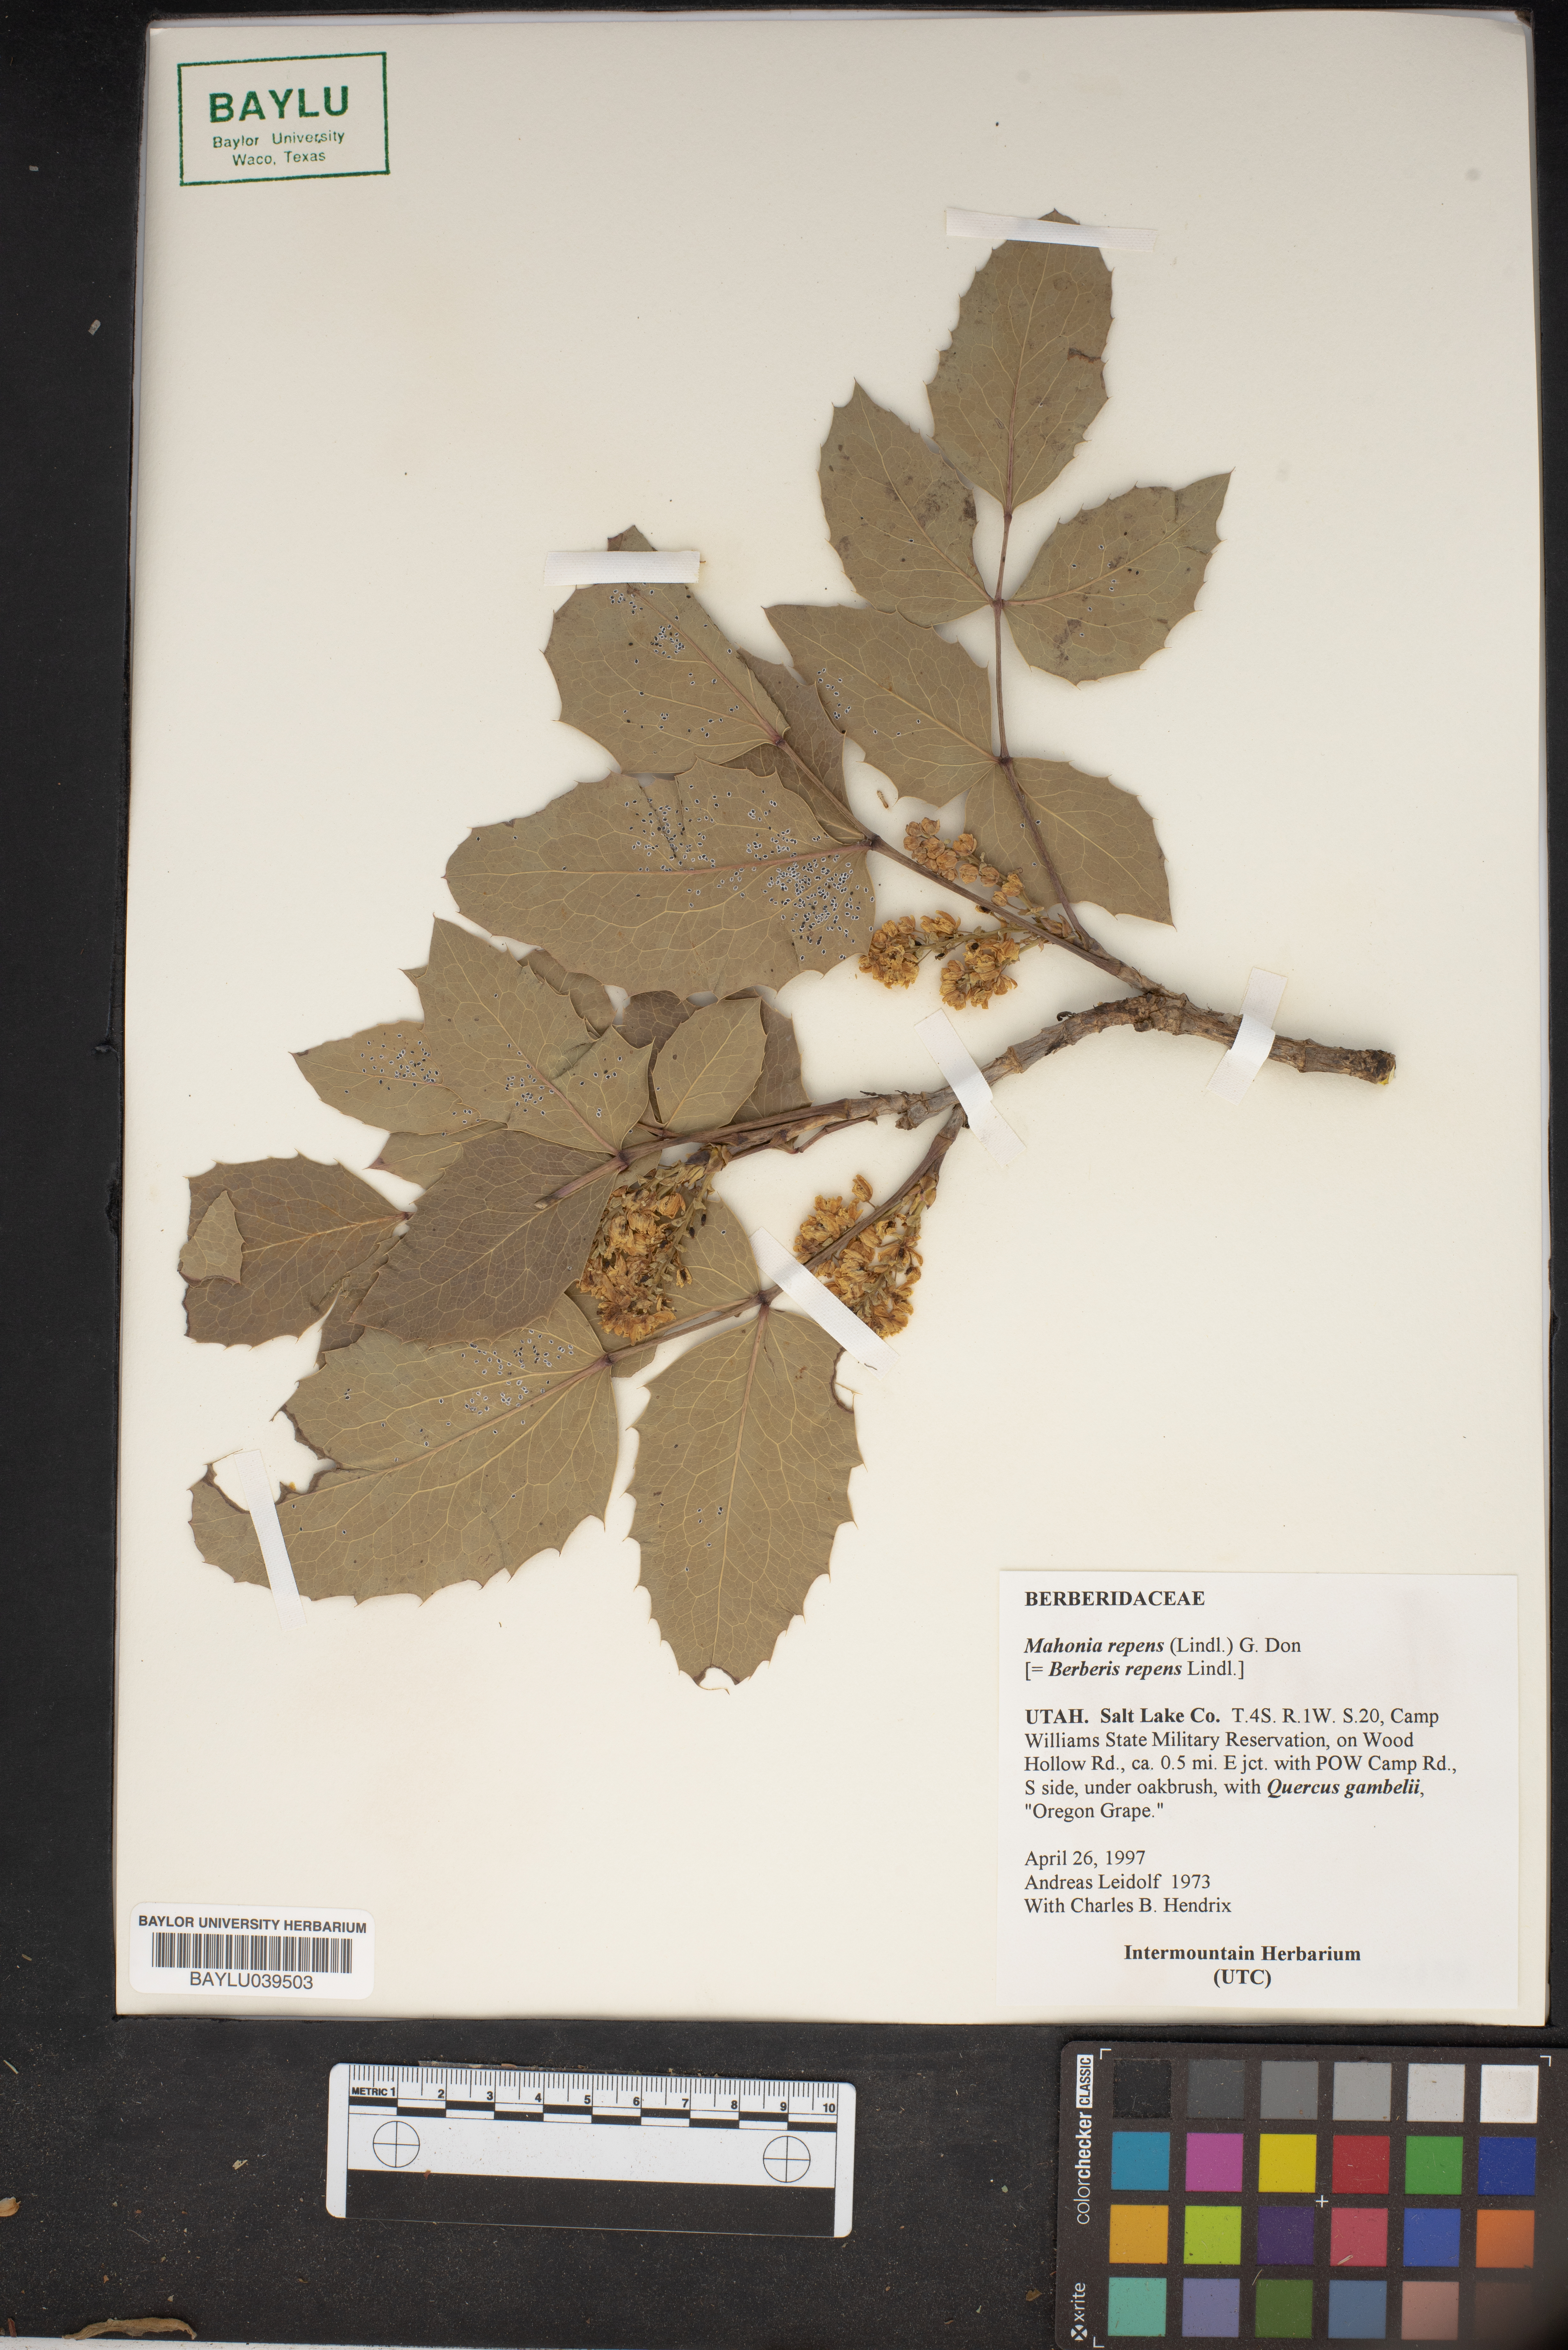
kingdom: Plantae
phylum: Tracheophyta
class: Magnoliopsida
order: Ranunculales
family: Berberidaceae
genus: Mahonia
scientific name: Mahonia repens
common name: Creeping oregon-grape
